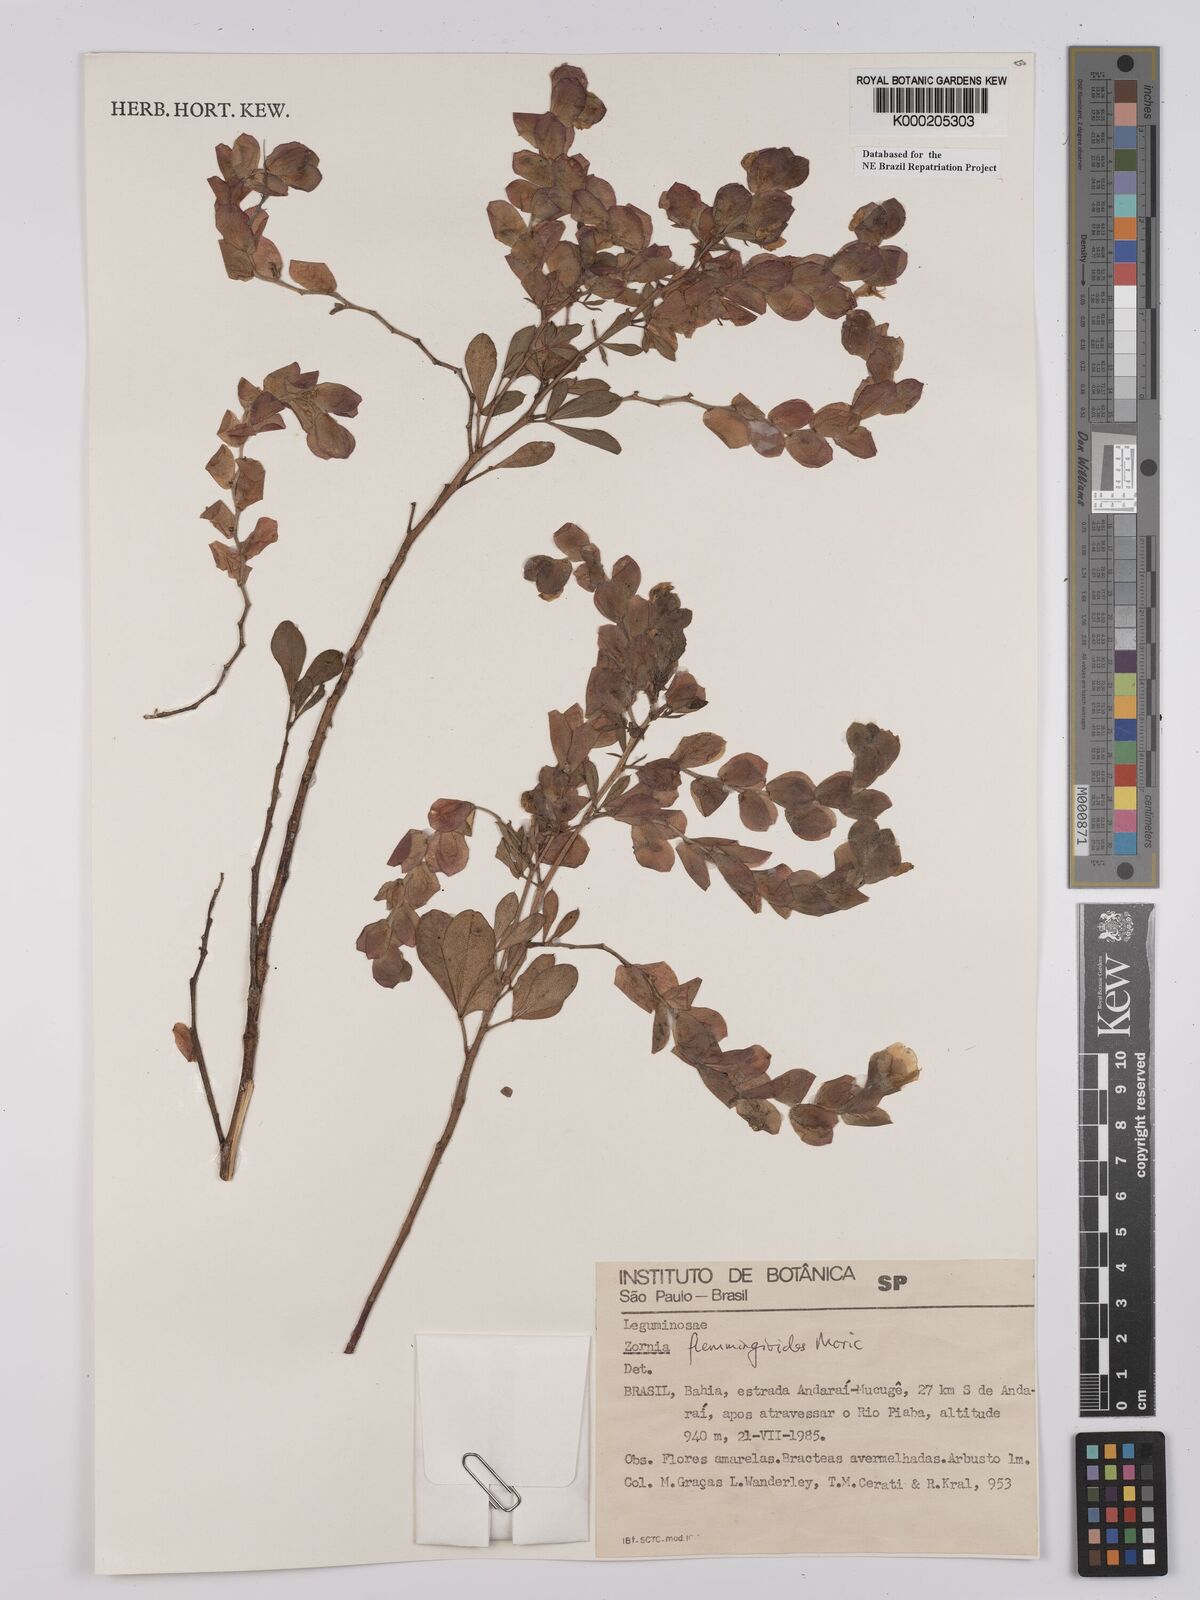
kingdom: Plantae
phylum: Tracheophyta
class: Magnoliopsida
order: Fabales
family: Fabaceae
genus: Zornia
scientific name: Zornia flemmingioides
